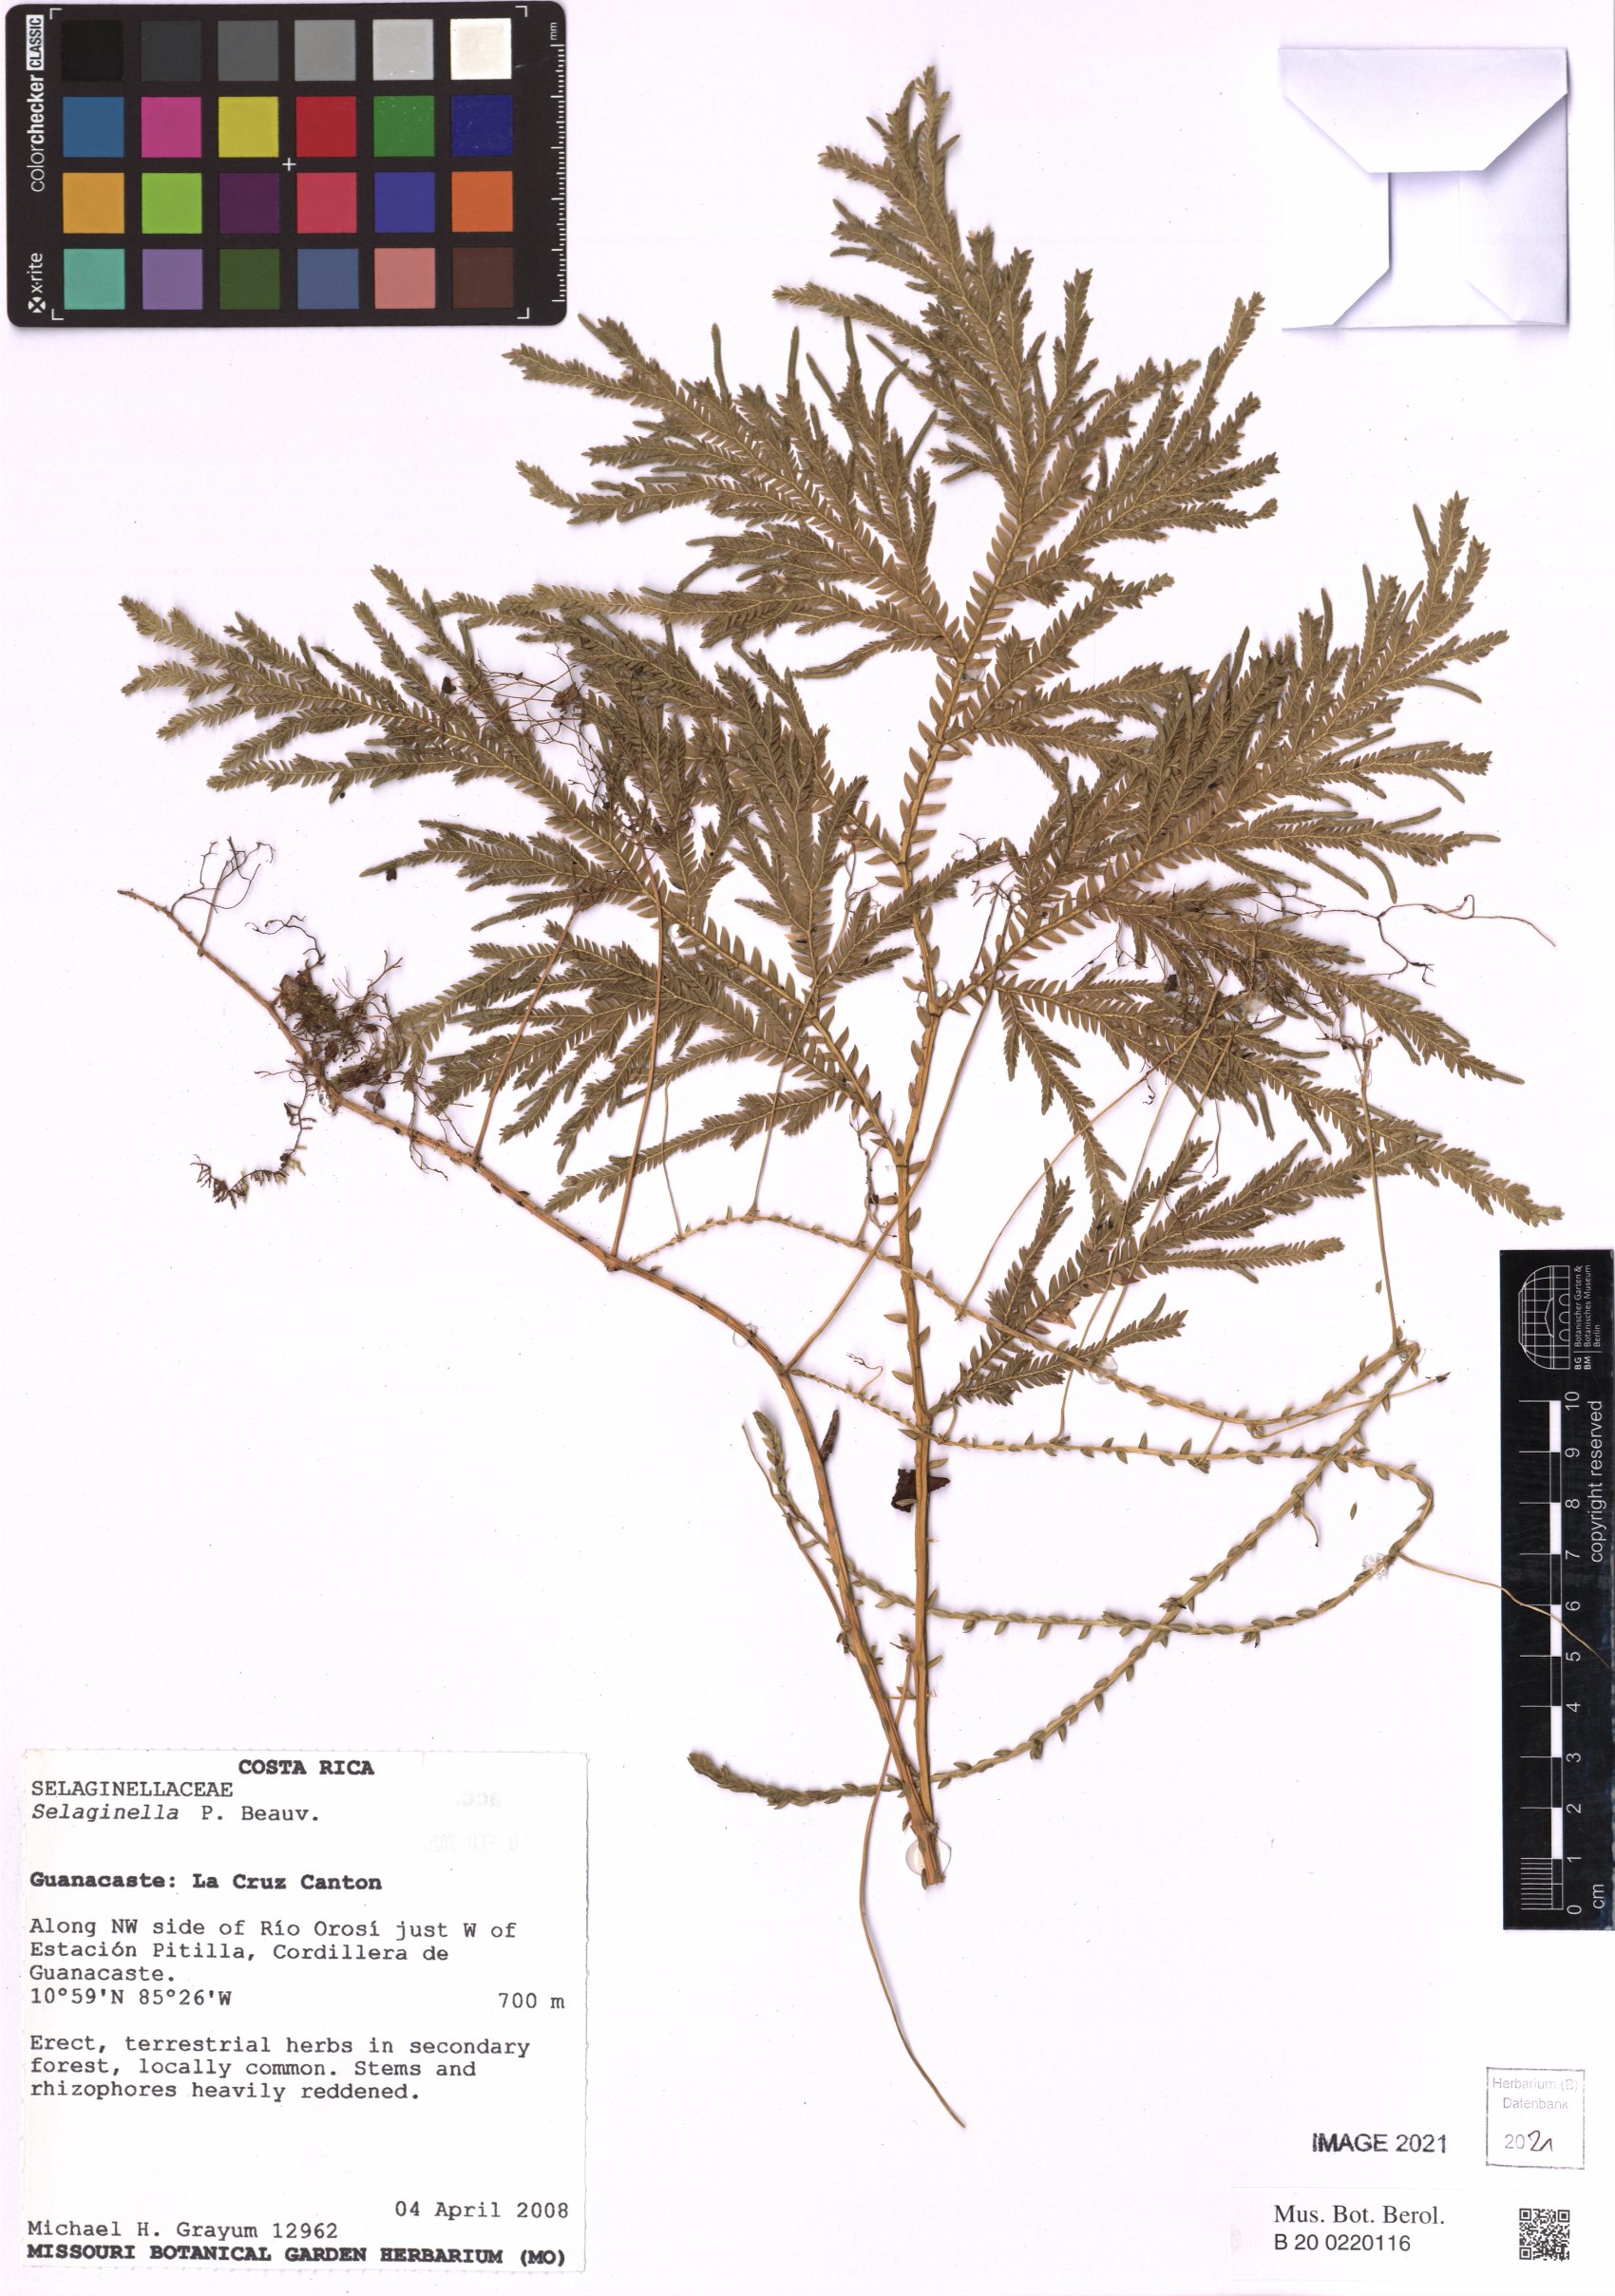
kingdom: Plantae
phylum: Tracheophyta
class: Lycopodiopsida
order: Selaginellales
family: Selaginellaceae
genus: Selaginella
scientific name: Selaginella
